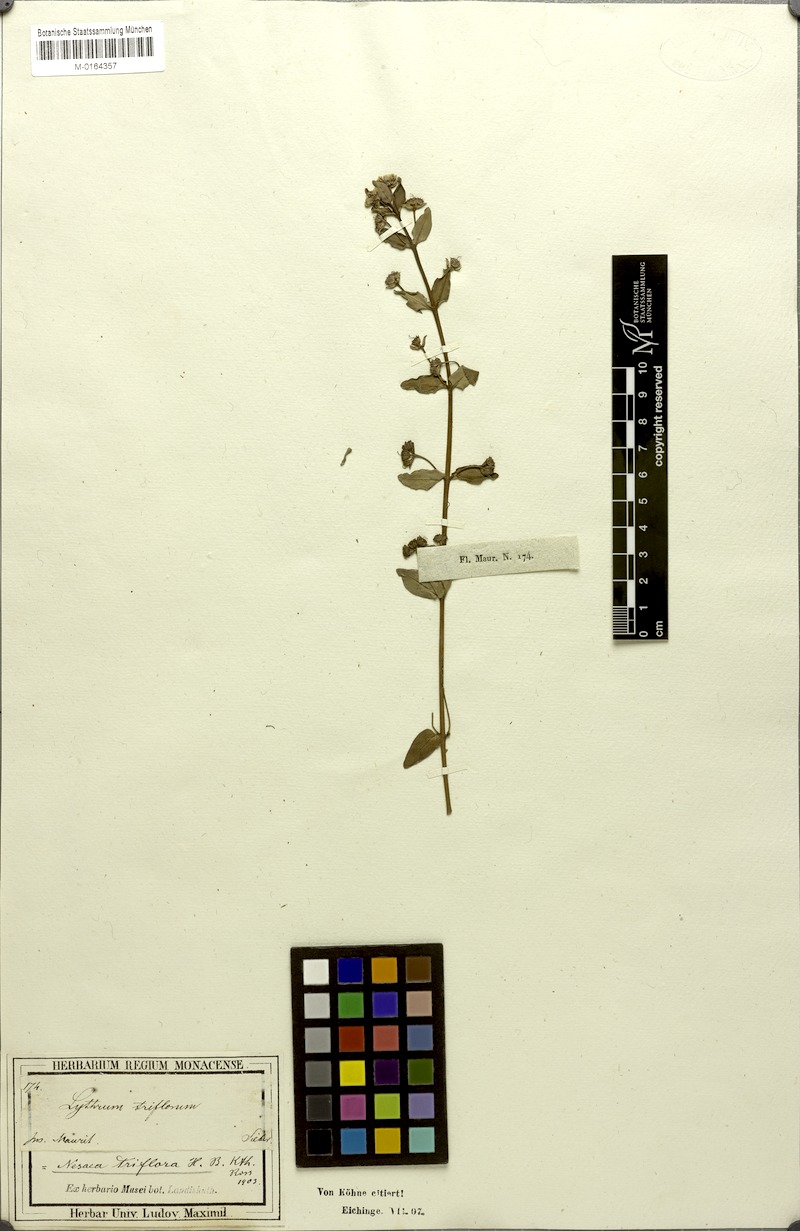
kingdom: Plantae
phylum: Tracheophyta
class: Magnoliopsida
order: Myrtales
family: Lythraceae
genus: Ammannia
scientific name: Ammannia capitellata
